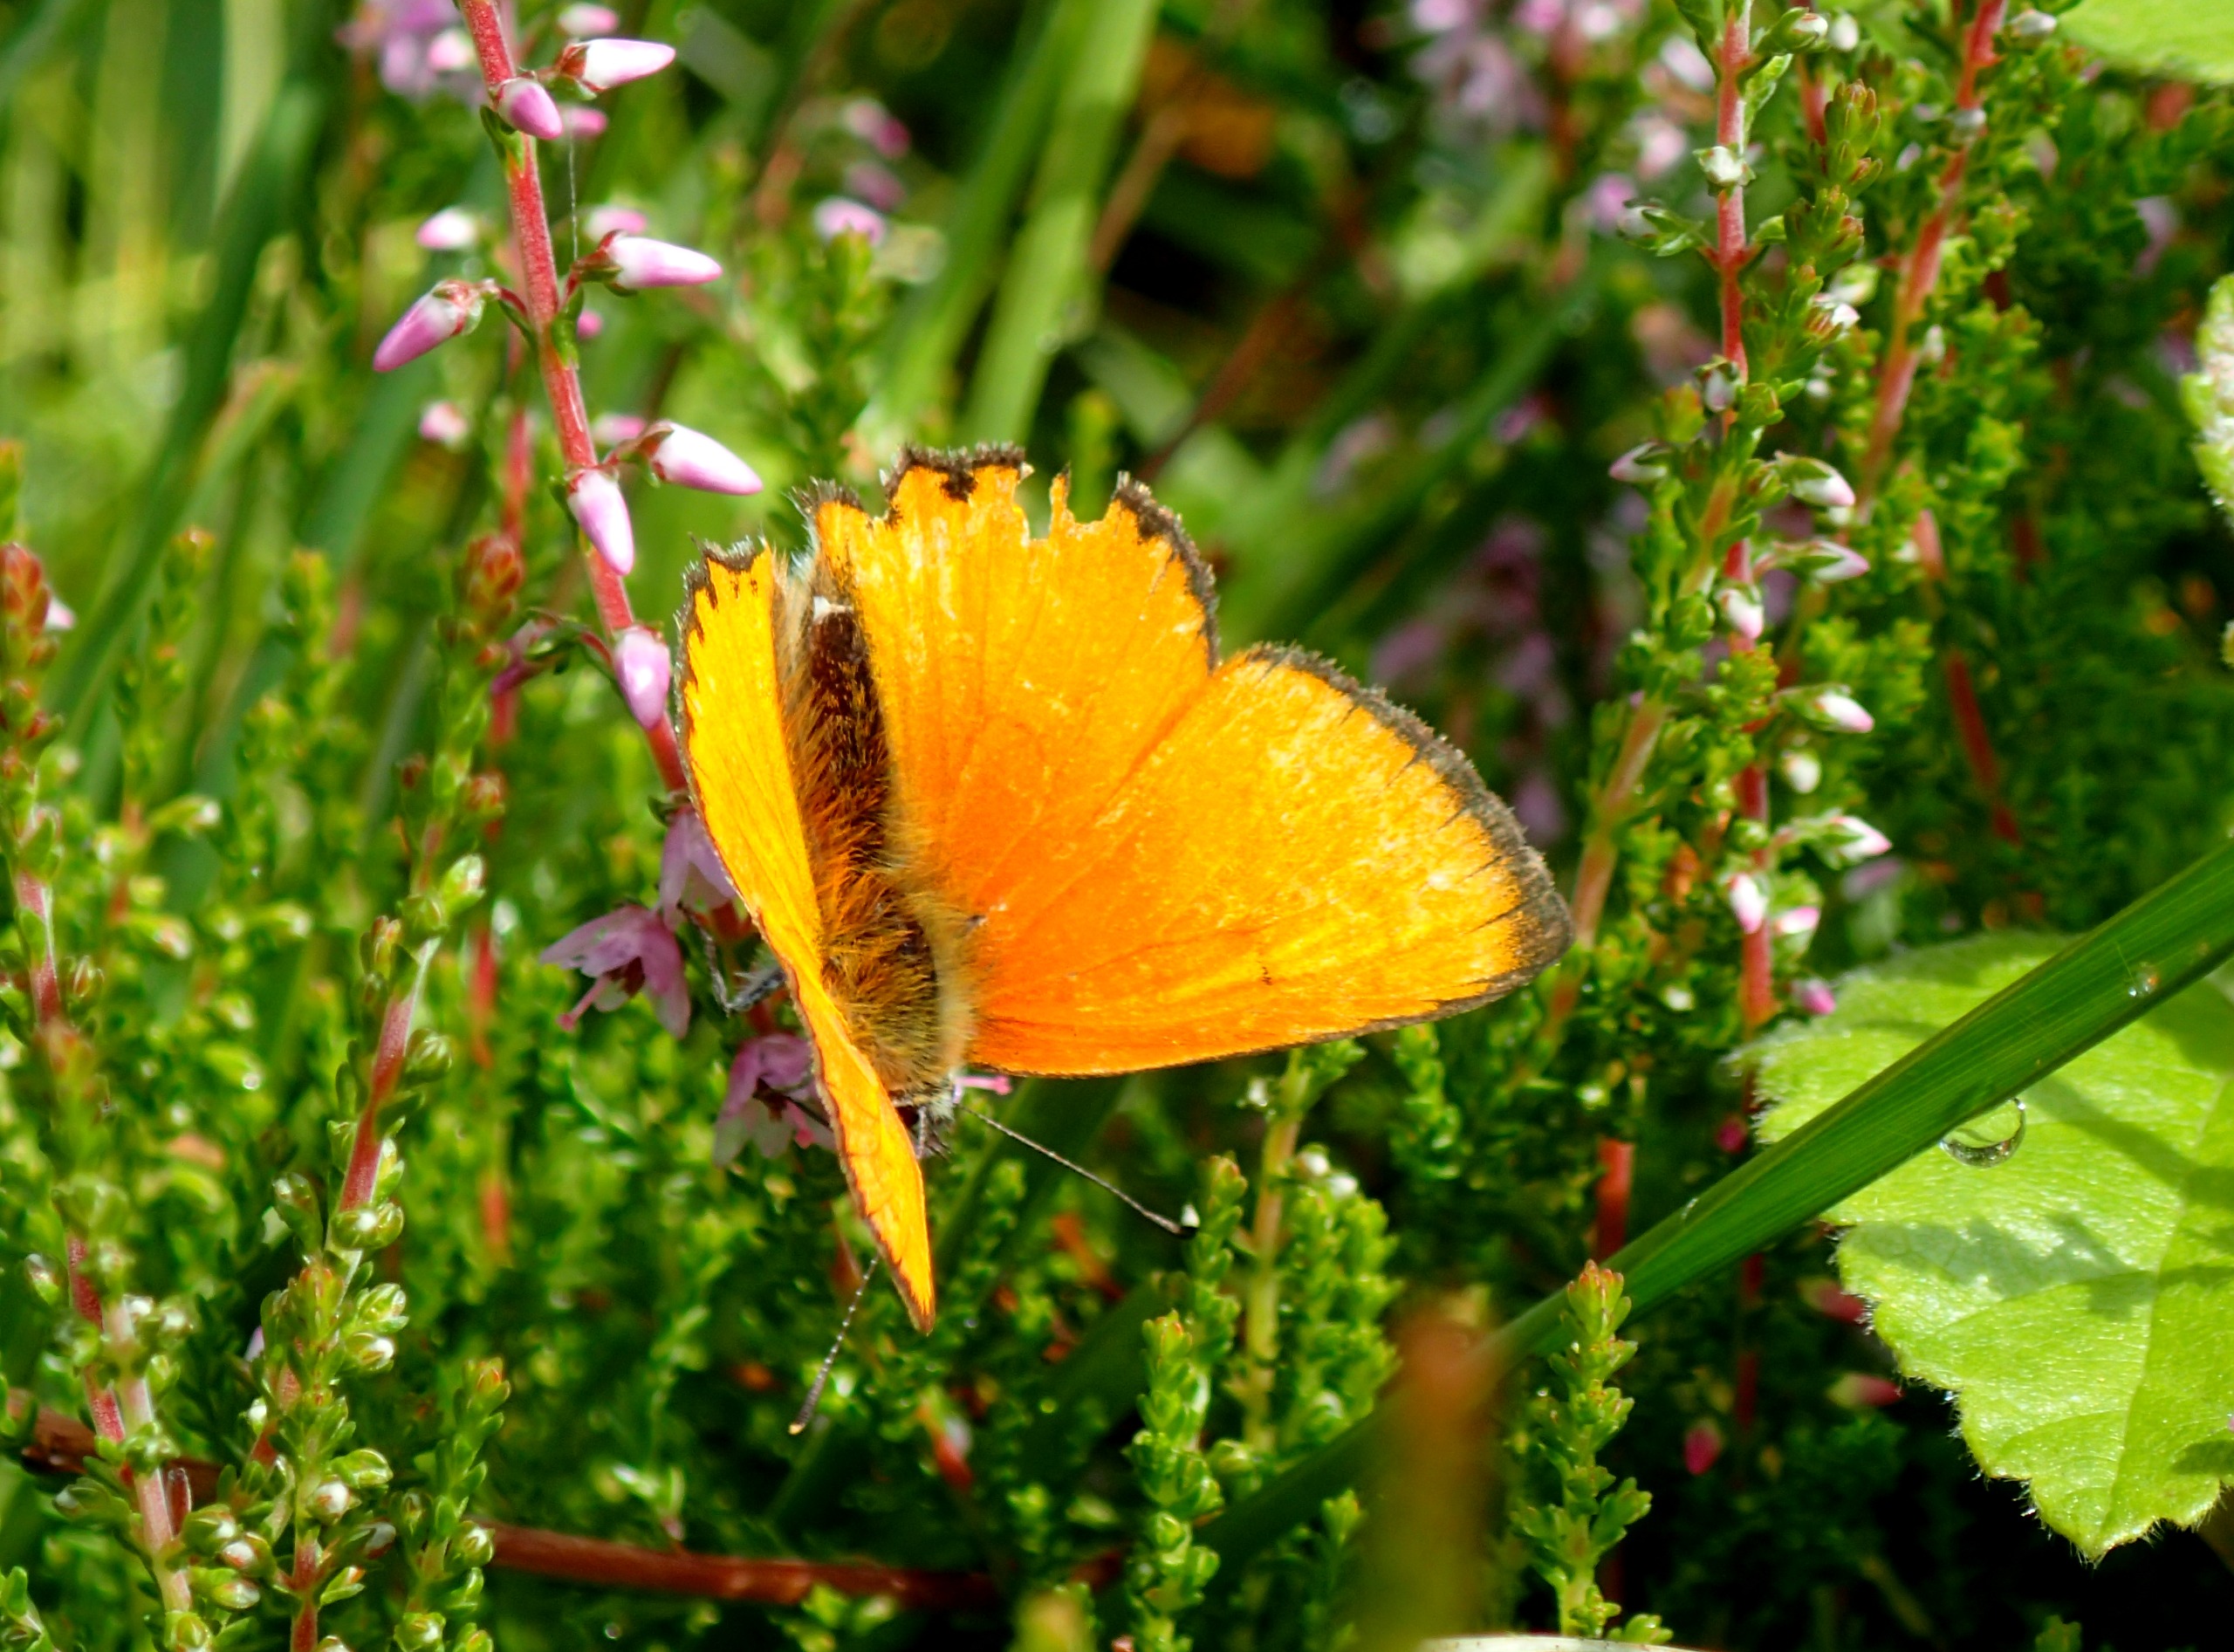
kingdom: Animalia
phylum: Arthropoda
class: Insecta
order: Lepidoptera
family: Lycaenidae
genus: Lycaena
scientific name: Lycaena virgaureae
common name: Dukatsommerfugl
